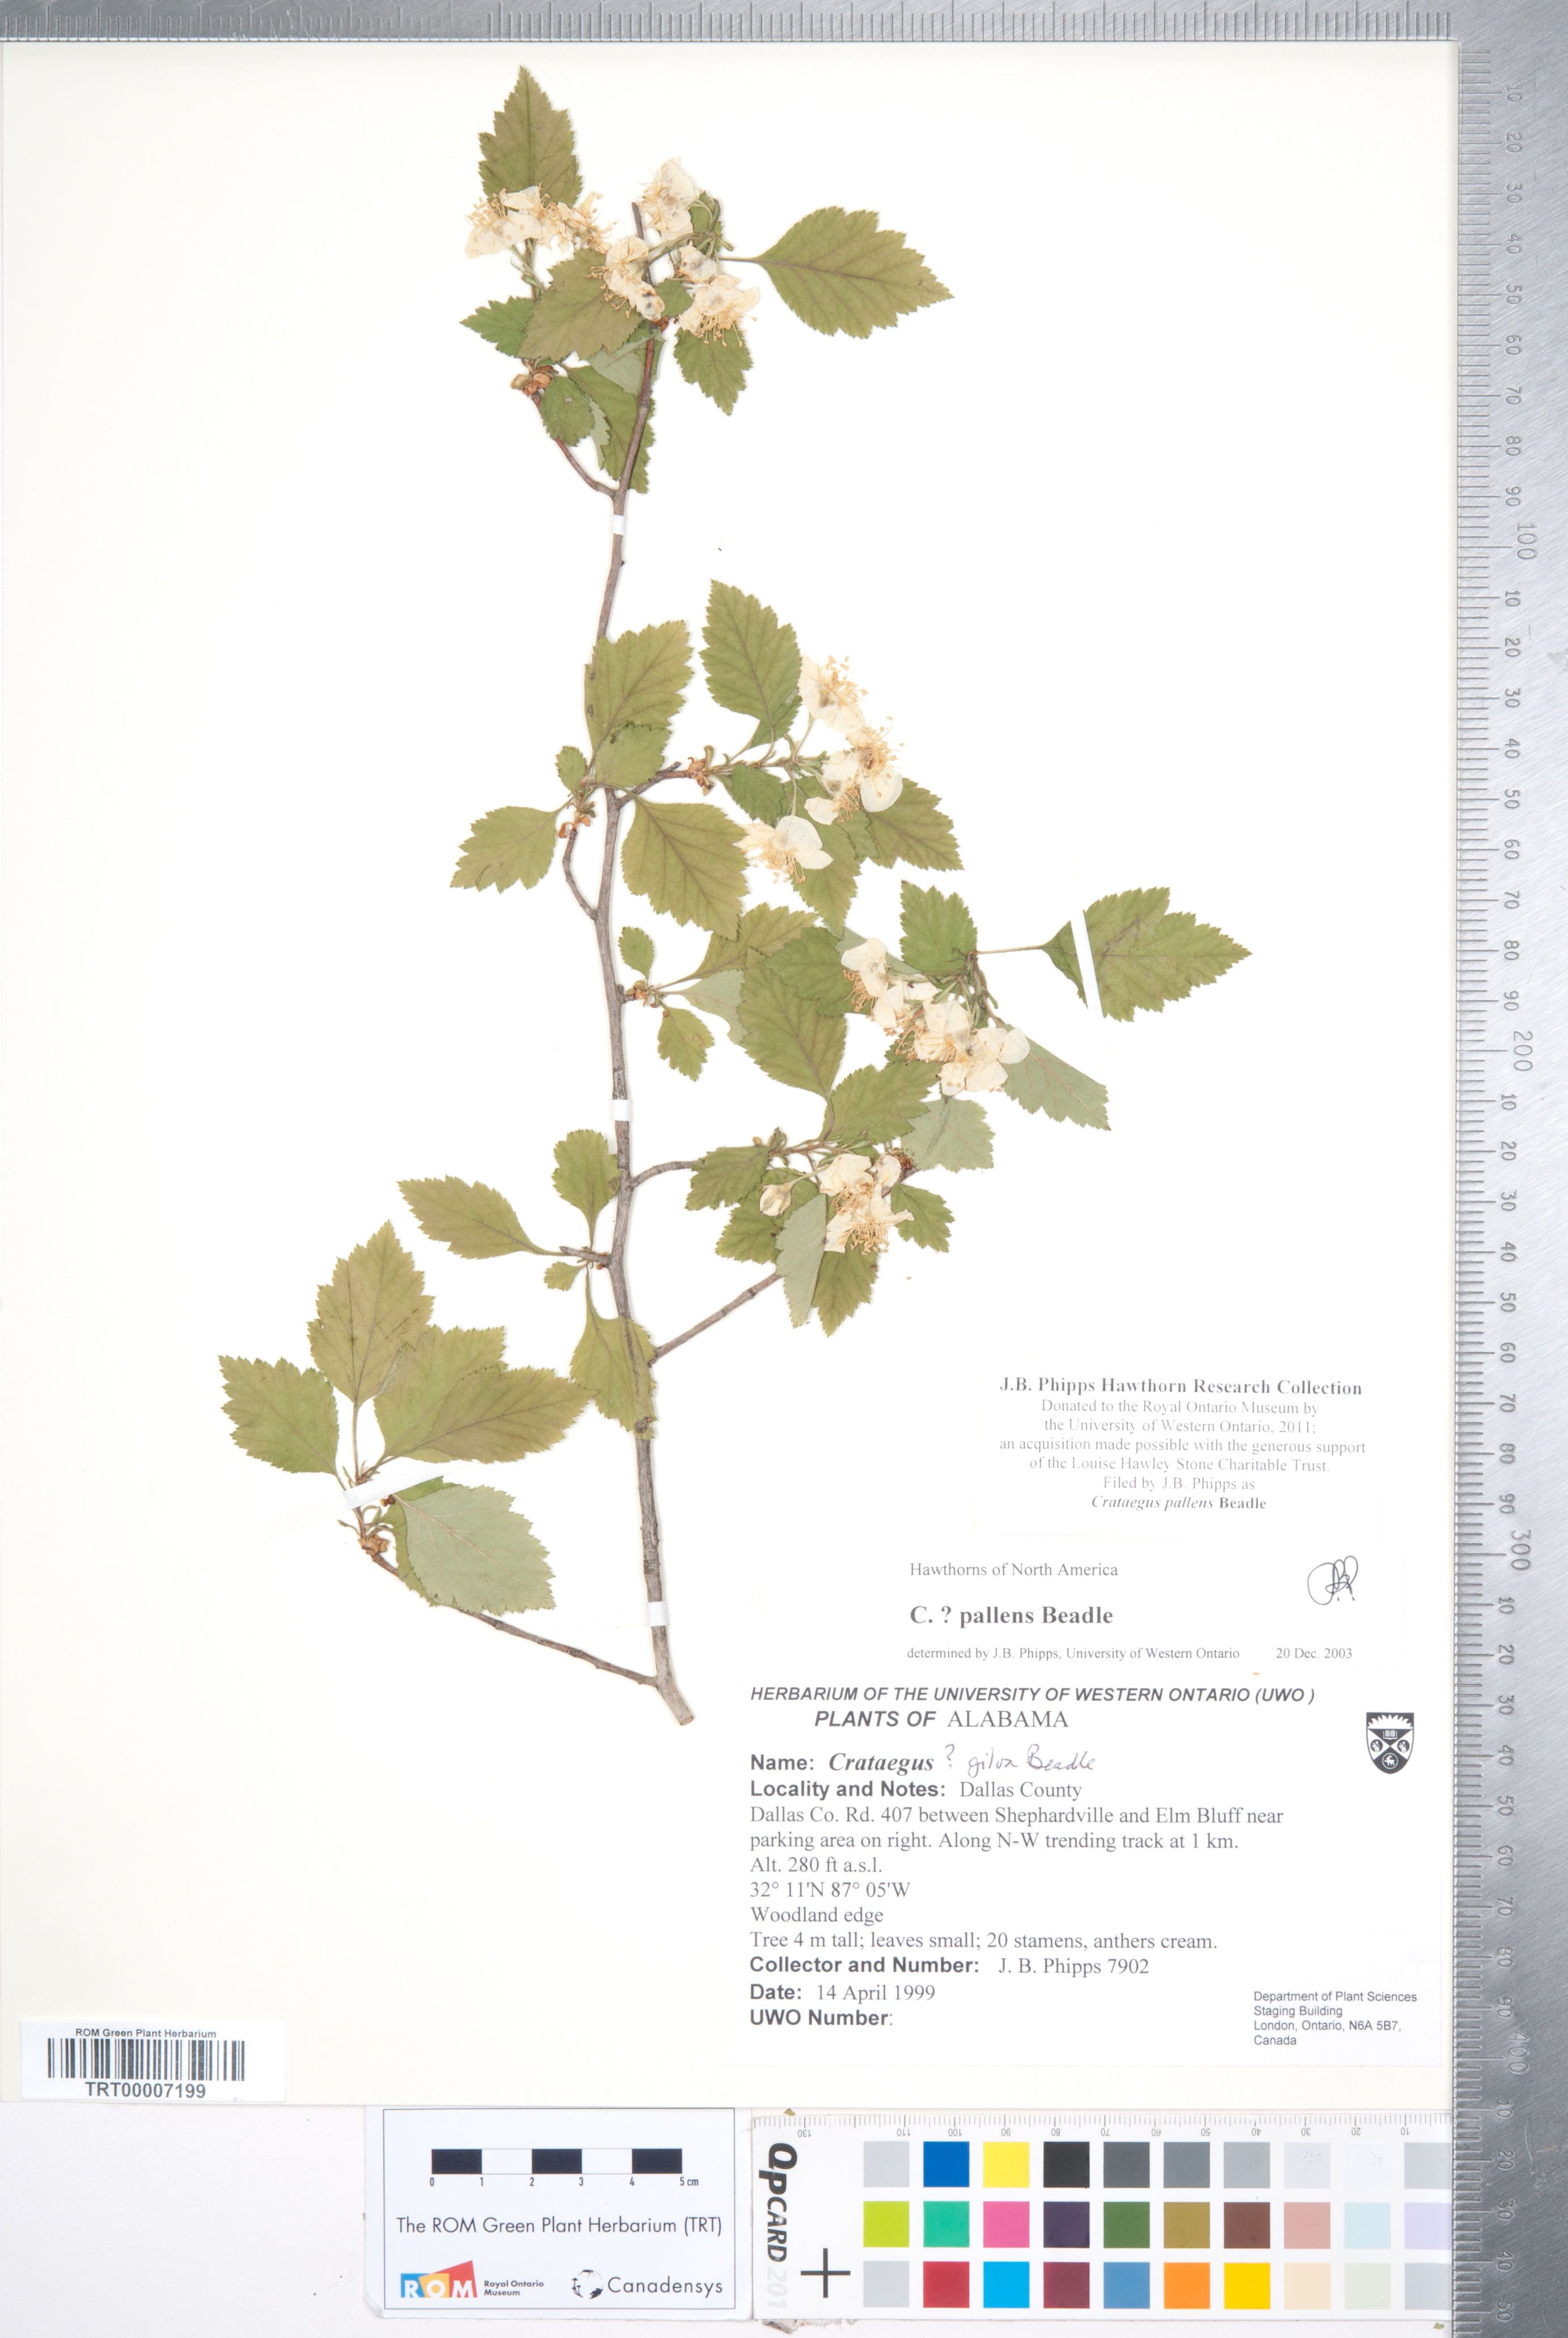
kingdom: Plantae
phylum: Tracheophyta
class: Magnoliopsida
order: Rosales
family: Rosaceae
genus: Crataegus
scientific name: Crataegus pulcherrima
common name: Beautiful hawthorn
